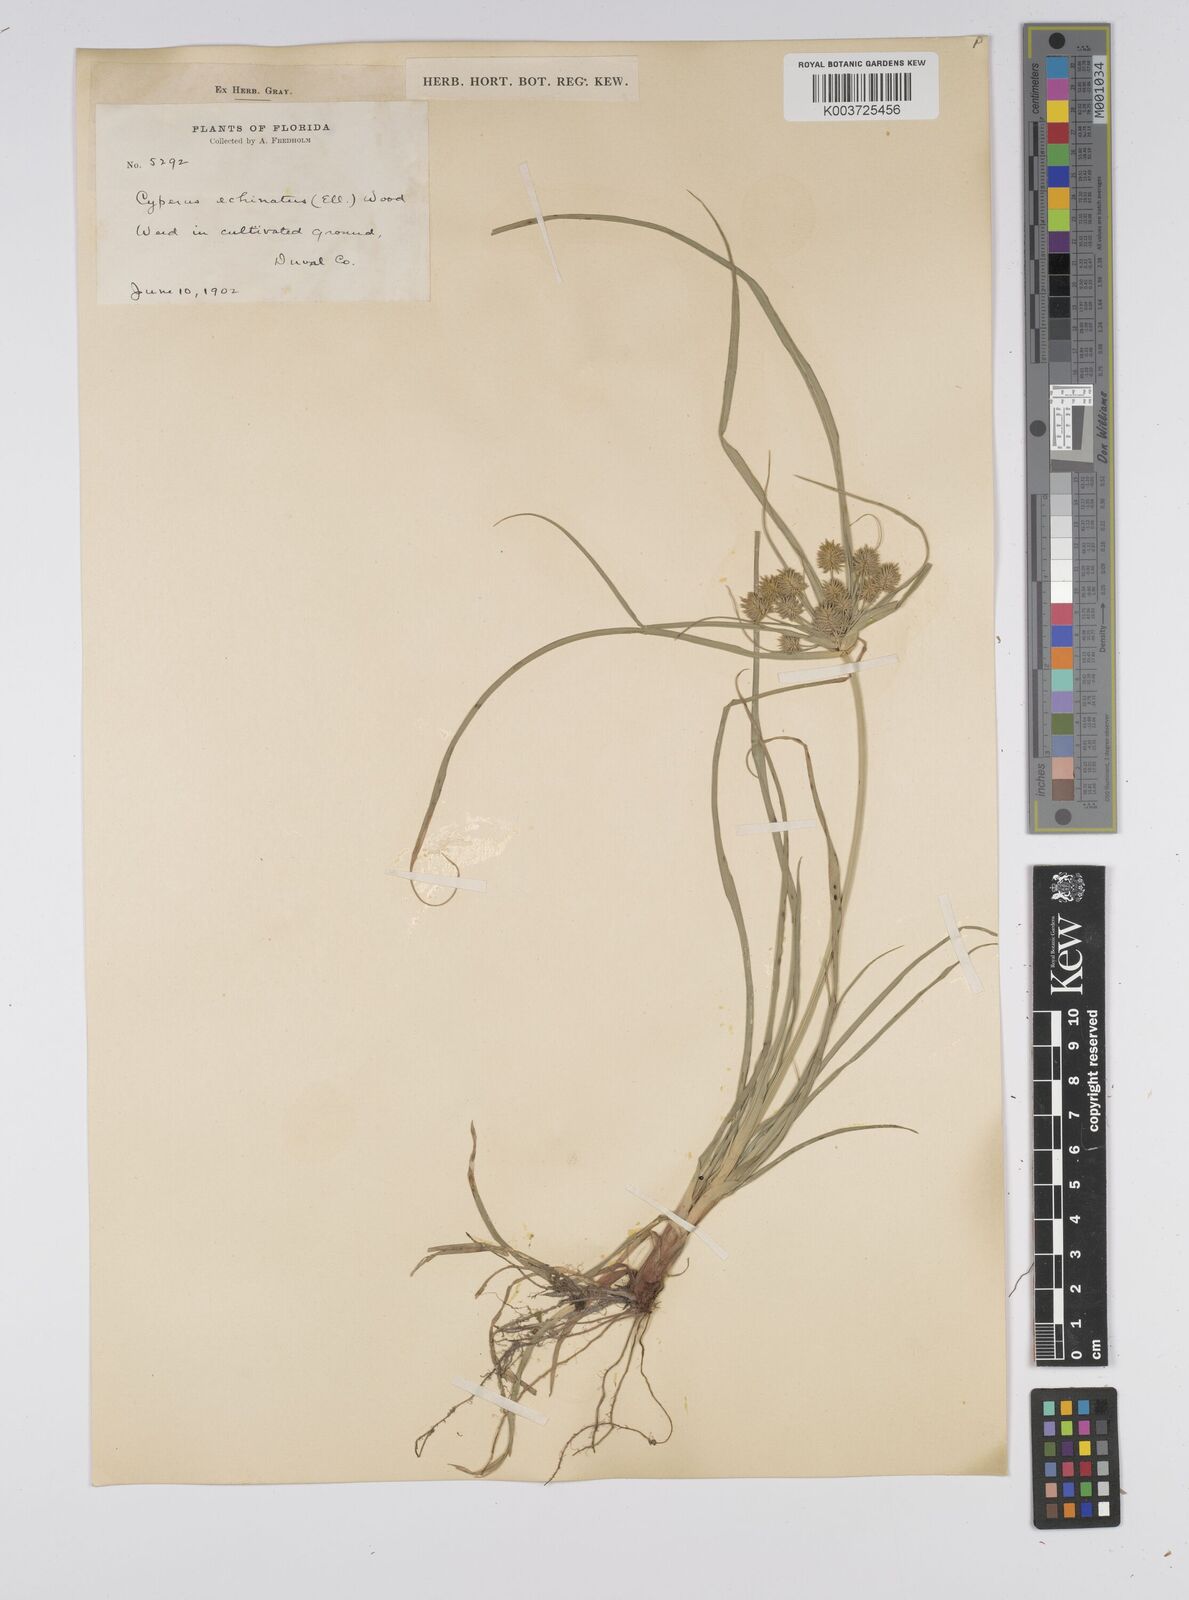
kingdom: Plantae
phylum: Tracheophyta
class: Liliopsida
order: Poales
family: Cyperaceae
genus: Cyperus
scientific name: Cyperus luzulae
